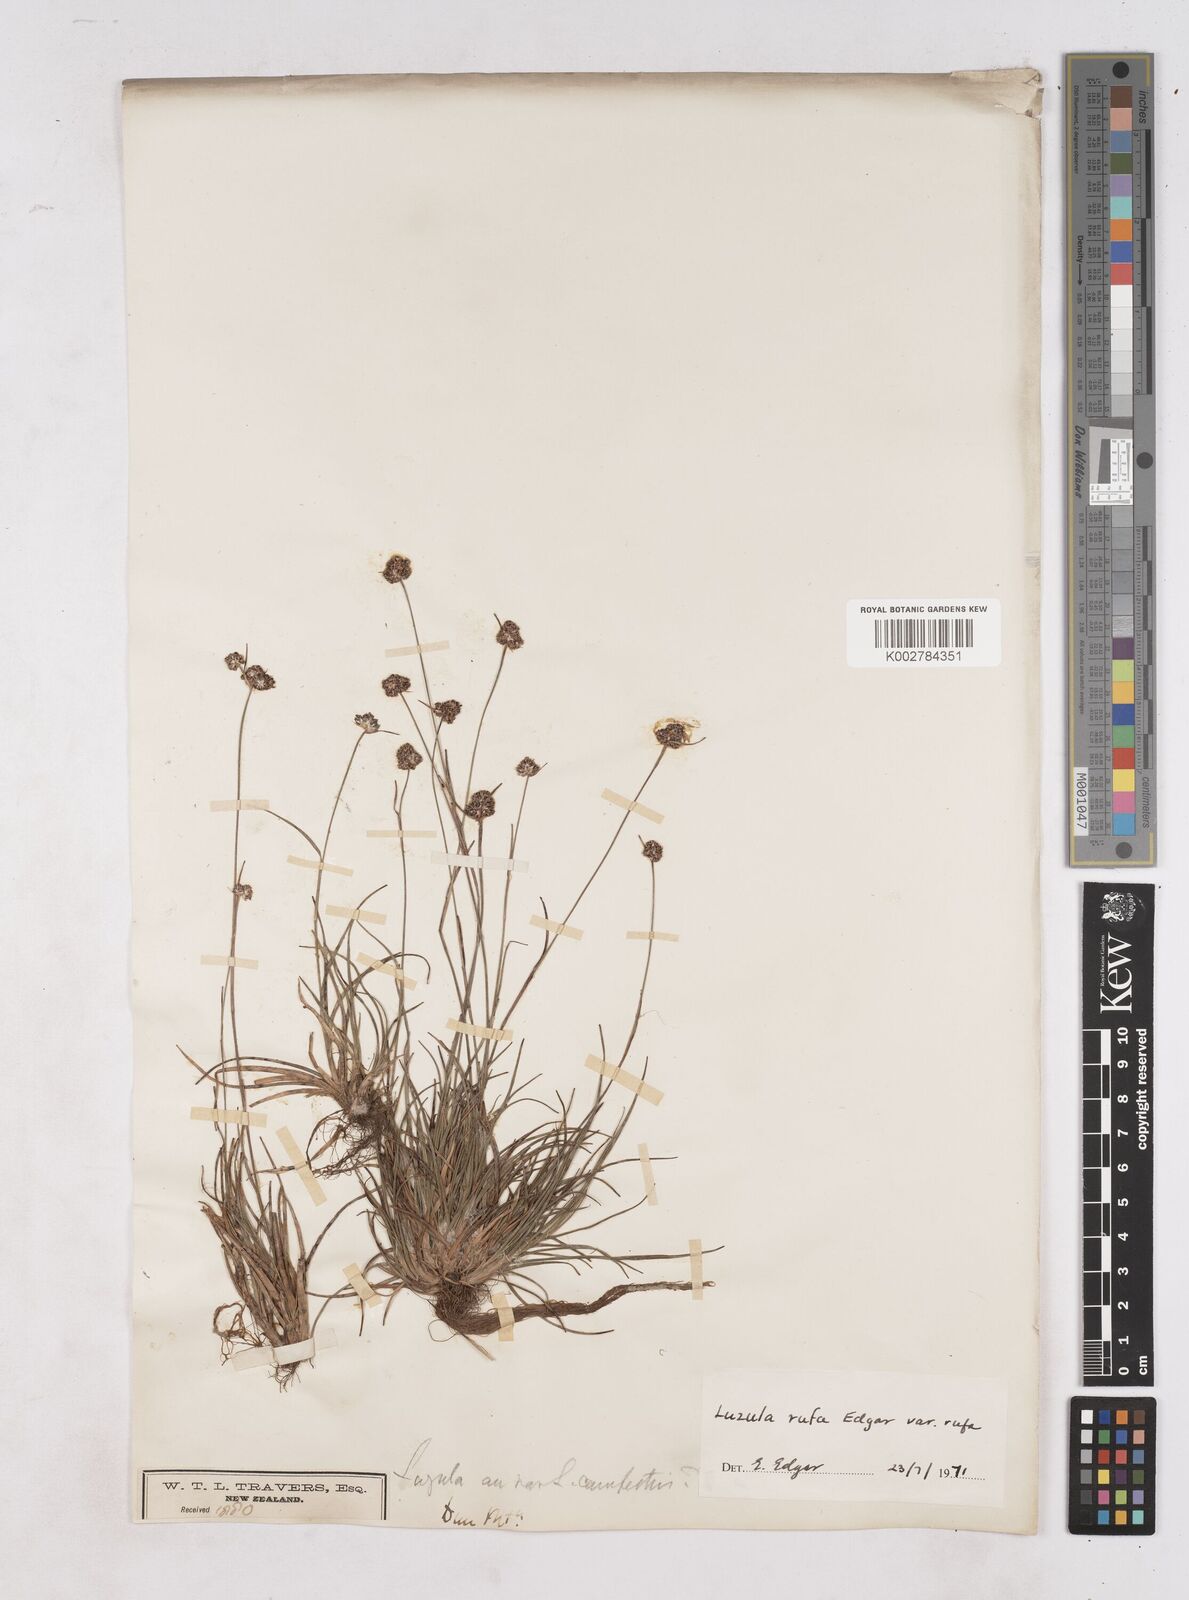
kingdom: Plantae
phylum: Tracheophyta
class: Liliopsida
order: Poales
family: Juncaceae
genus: Luzula
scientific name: Luzula rufa
